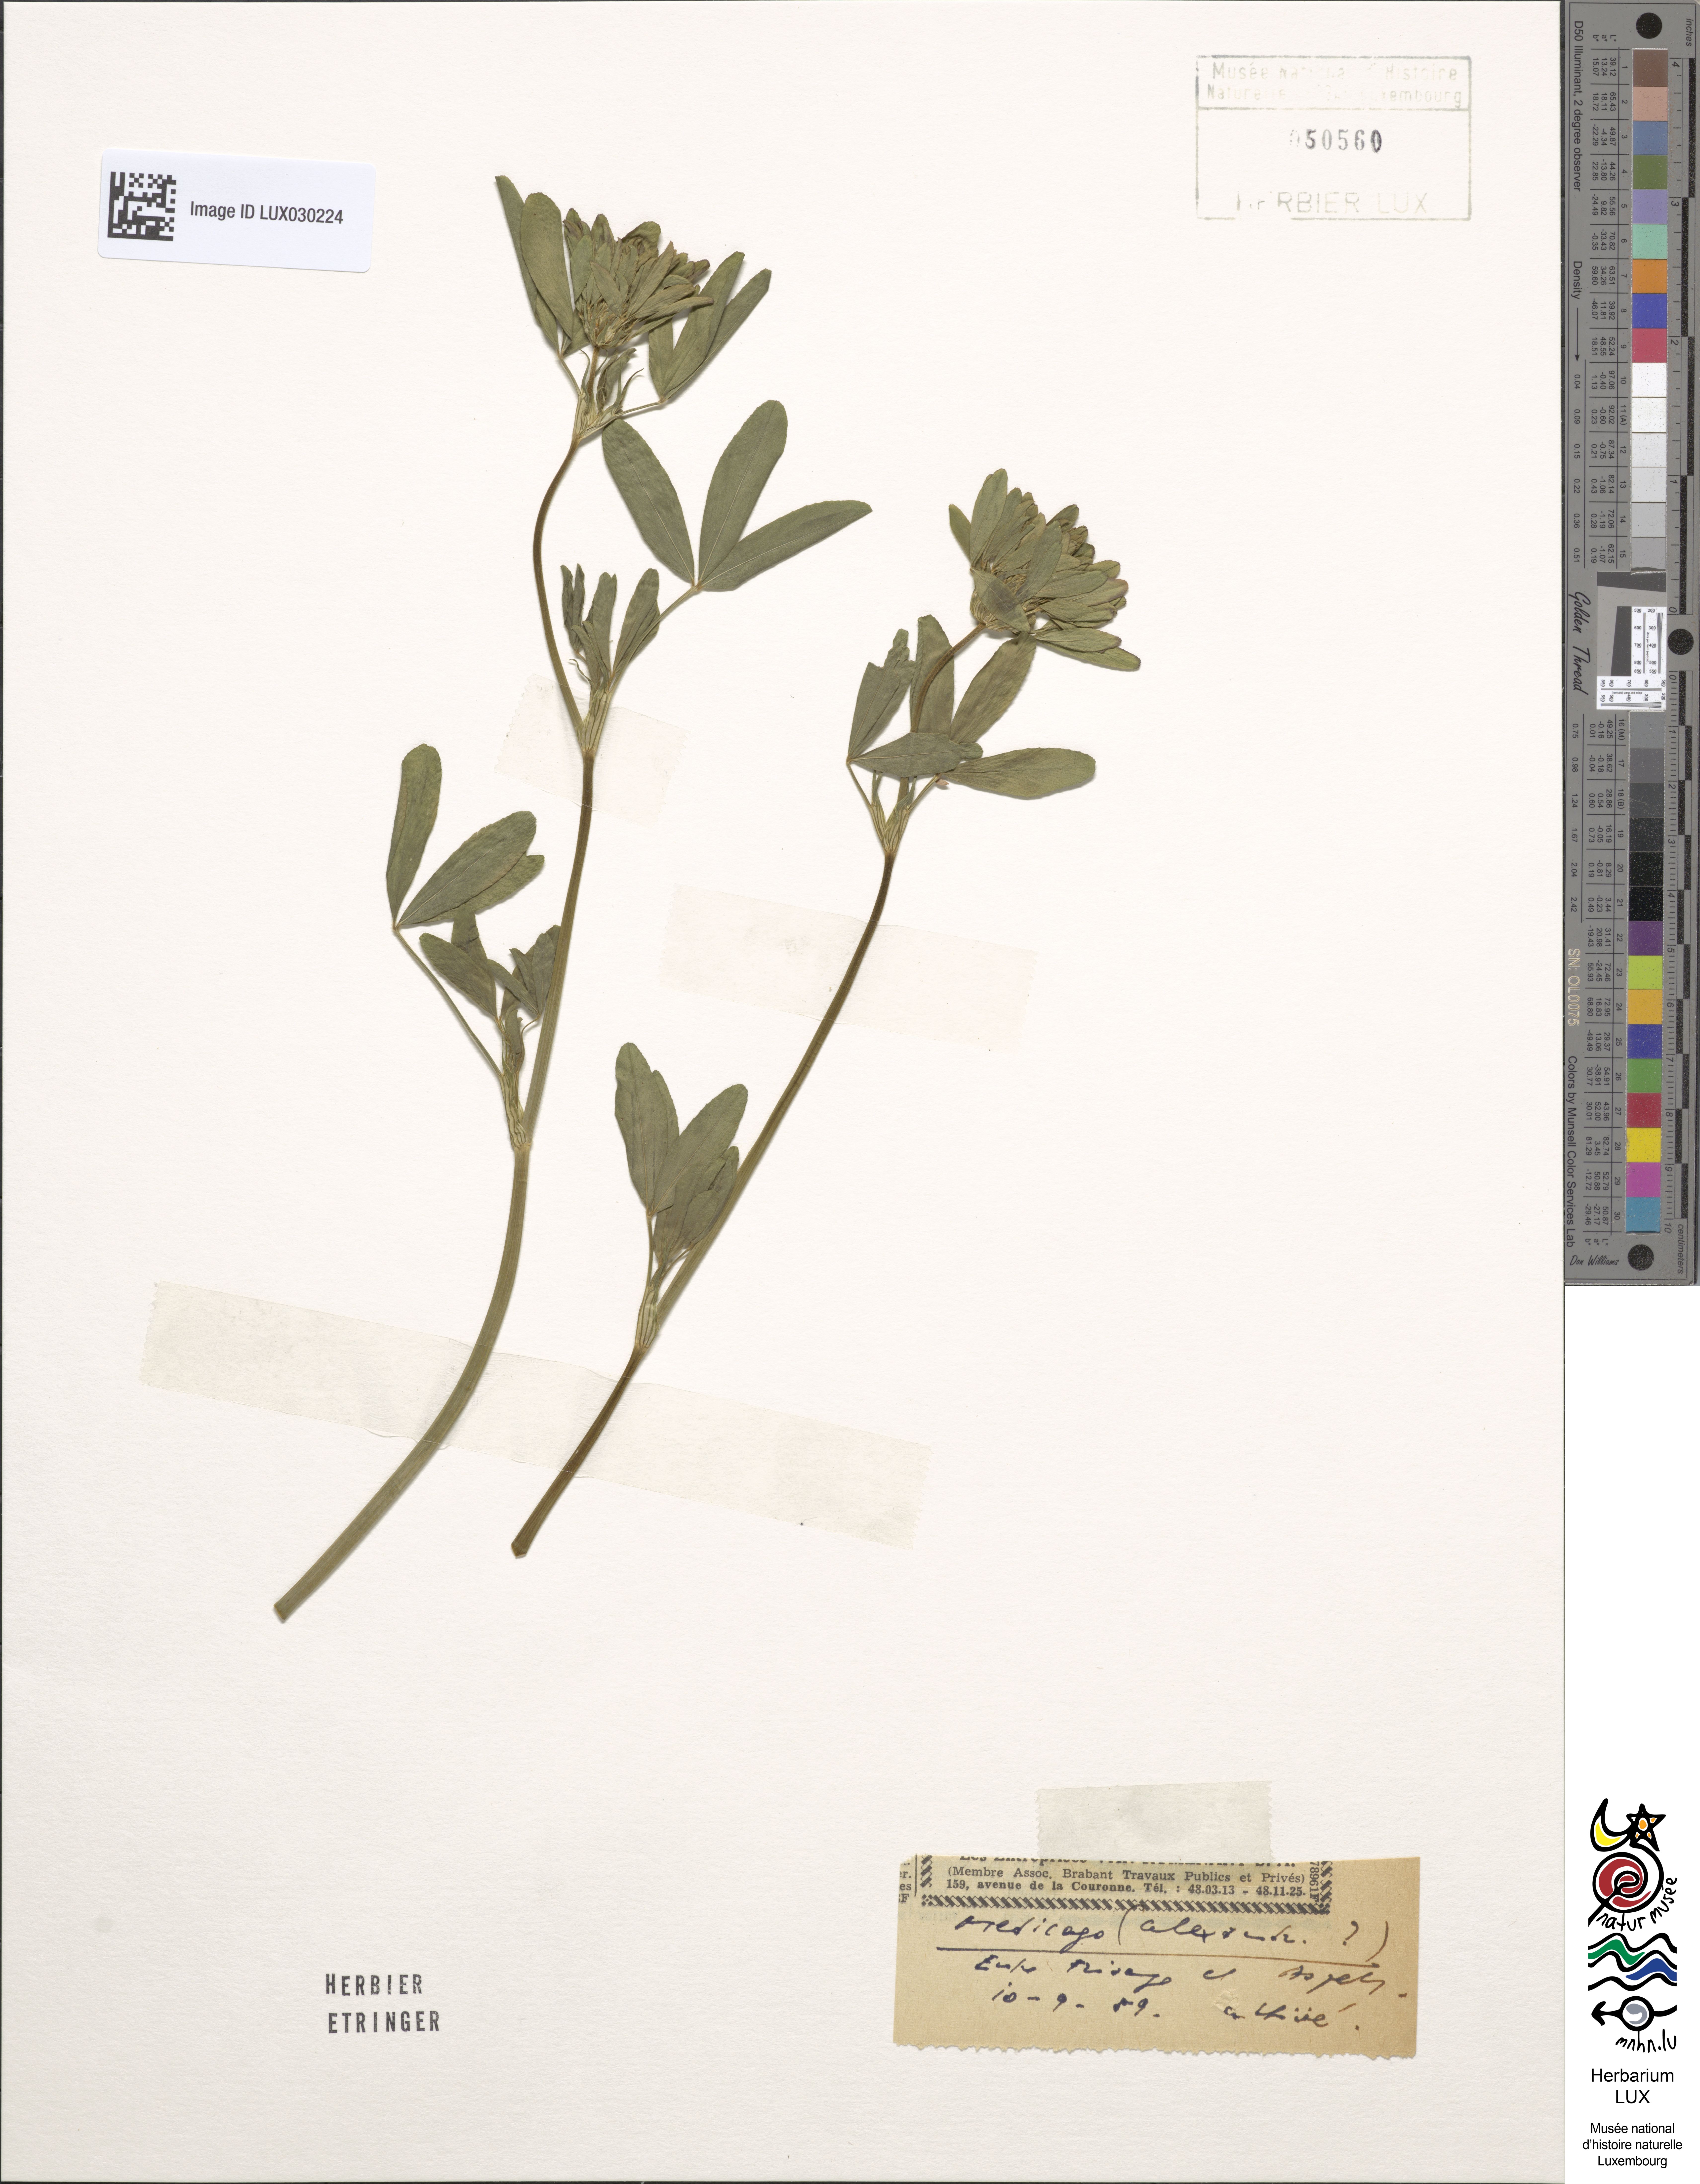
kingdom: Plantae
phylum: Tracheophyta
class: Magnoliopsida
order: Fabales
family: Fabaceae
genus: Trifolium
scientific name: Trifolium alexandrinum
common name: Egyptian clover
